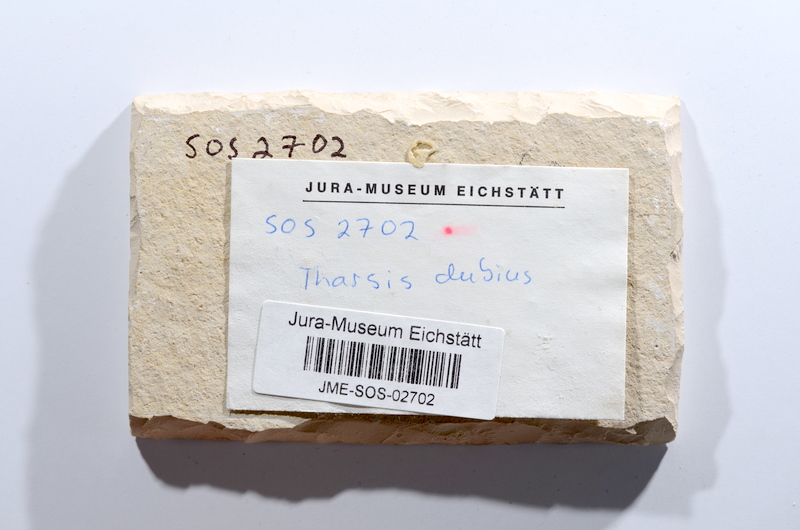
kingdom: Animalia
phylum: Chordata
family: Ascalaboidae
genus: Tharsis
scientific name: Tharsis dubius
